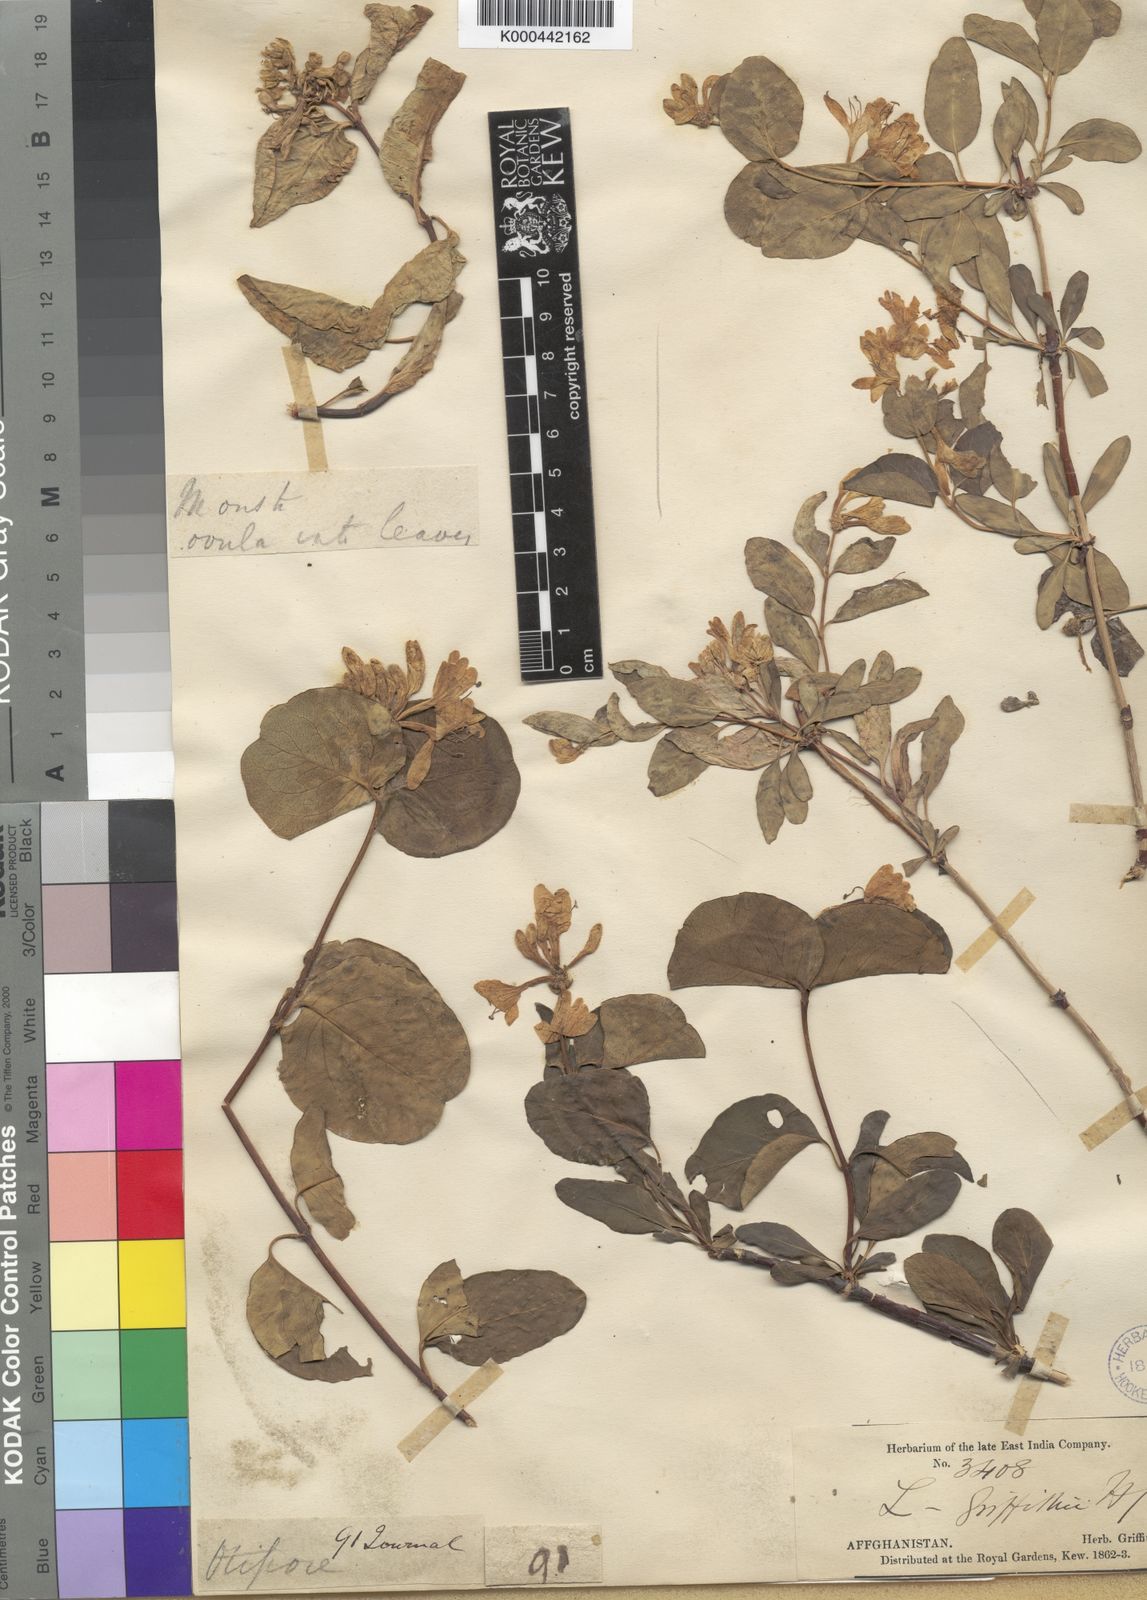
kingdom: Plantae
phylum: Tracheophyta
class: Magnoliopsida
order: Dipsacales
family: Caprifoliaceae
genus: Lonicera
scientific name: Lonicera griffithii
